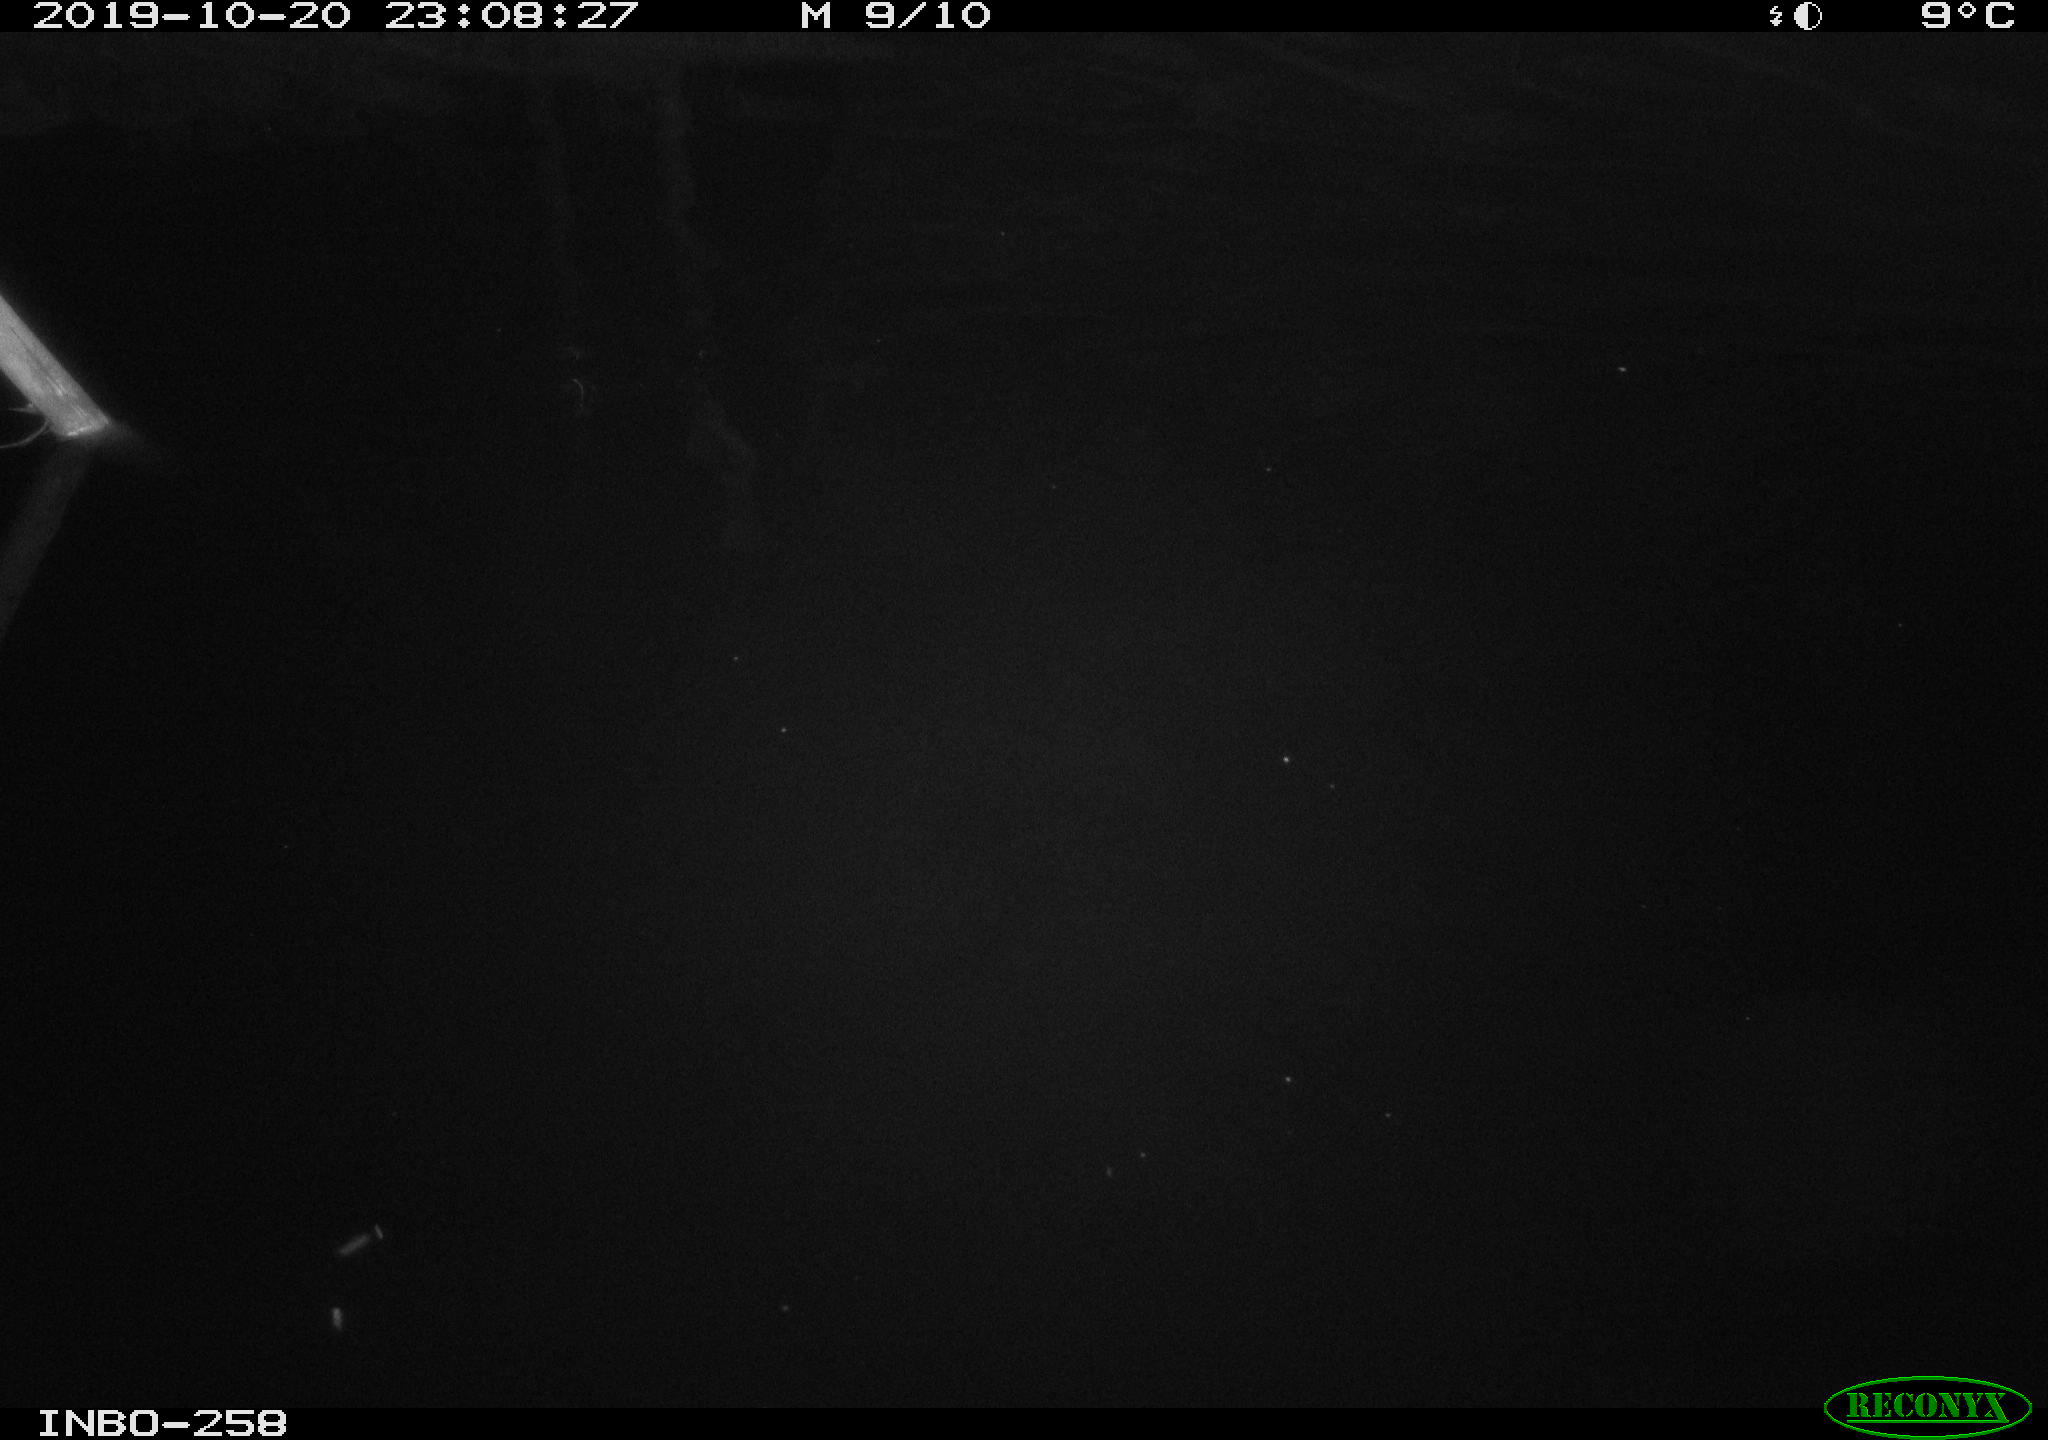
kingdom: Animalia
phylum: Chordata
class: Aves
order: Anseriformes
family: Anatidae
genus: Anas
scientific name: Anas platyrhynchos
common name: Mallard
